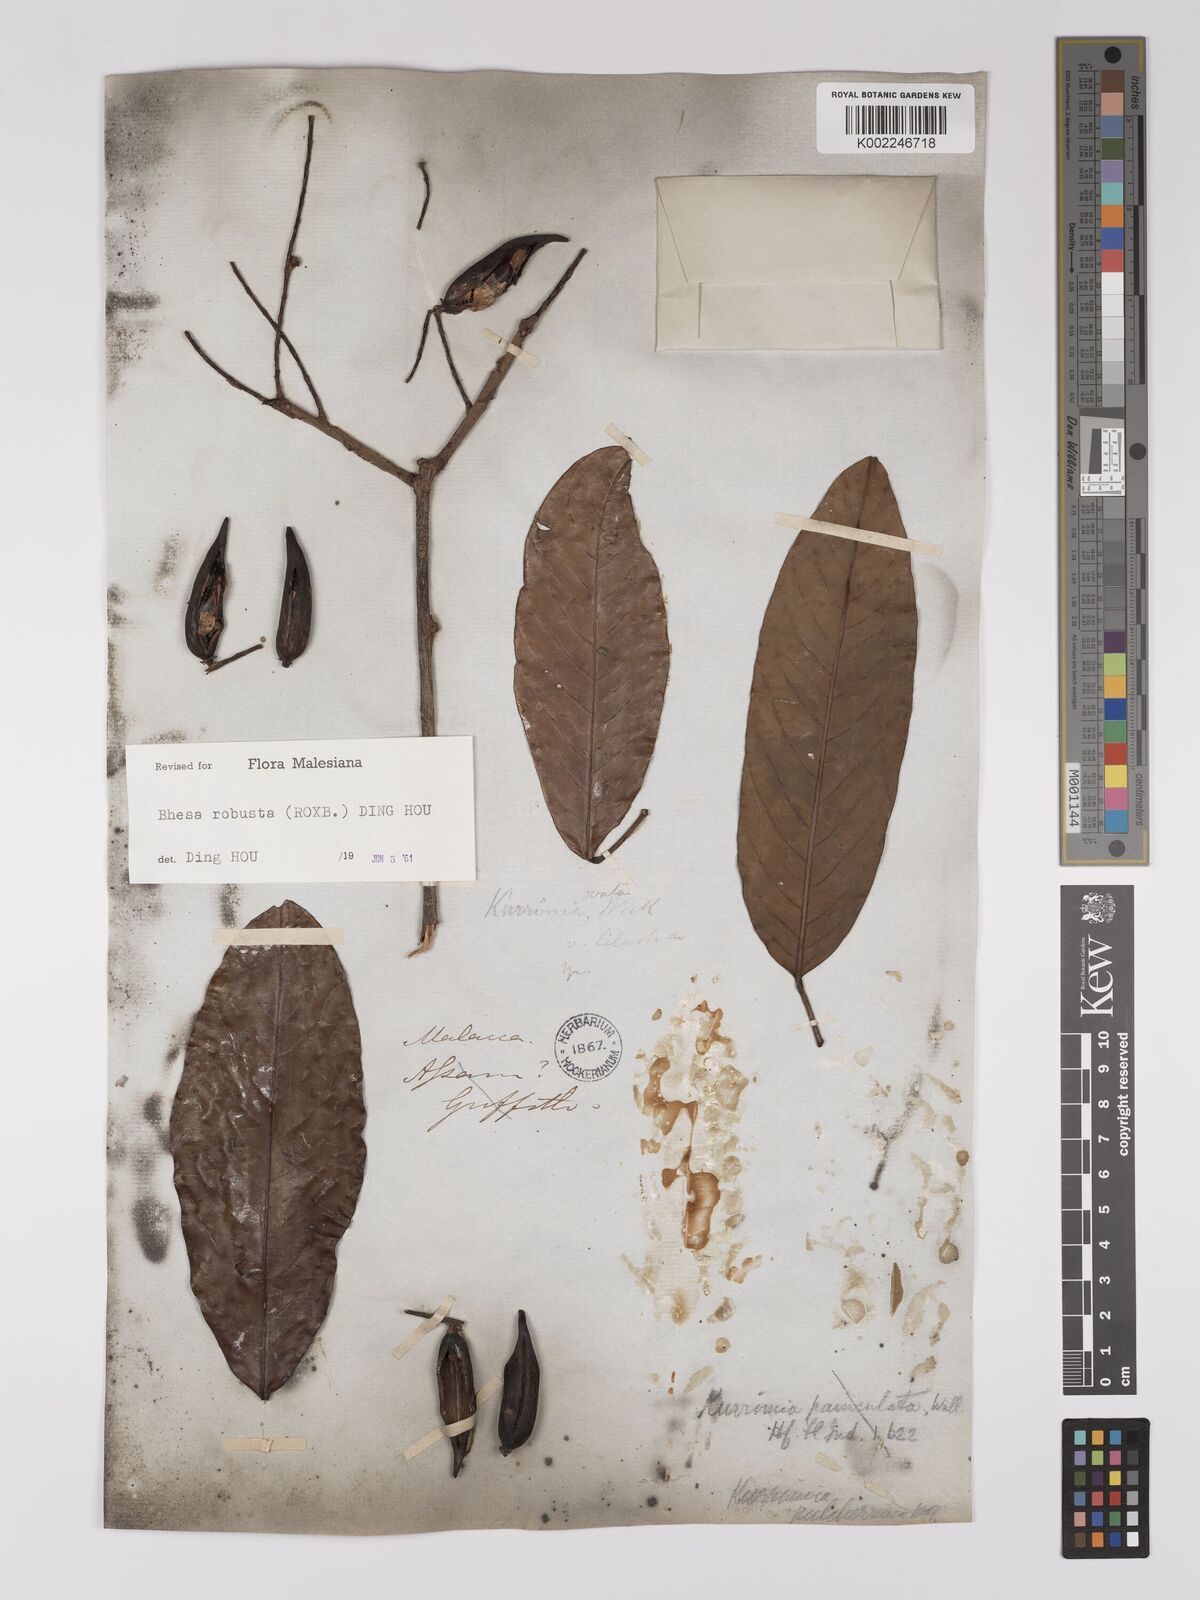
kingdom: Plantae
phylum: Tracheophyta
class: Magnoliopsida
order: Malpighiales
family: Centroplacaceae
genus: Bhesa
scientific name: Bhesa robusta
